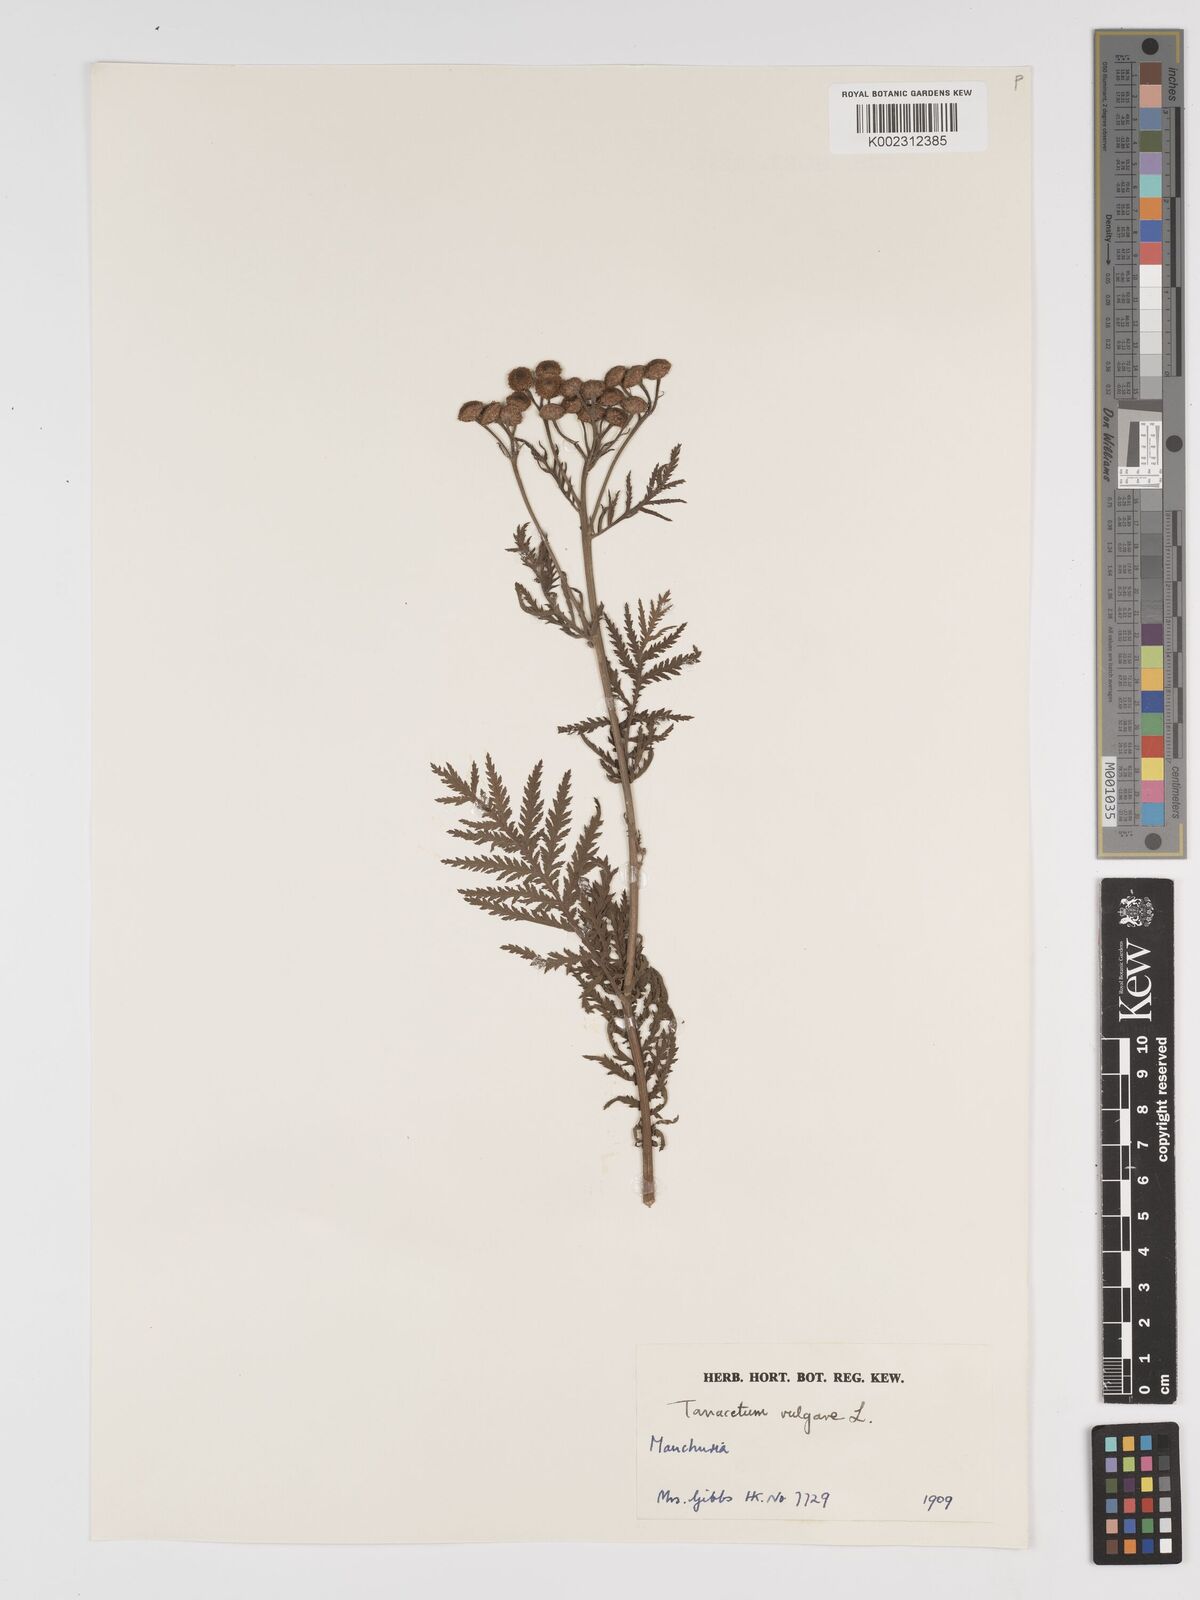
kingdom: Plantae
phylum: Tracheophyta
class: Magnoliopsida
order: Asterales
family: Asteraceae
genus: Tanacetum
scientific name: Tanacetum vulgare
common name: Common tansy
